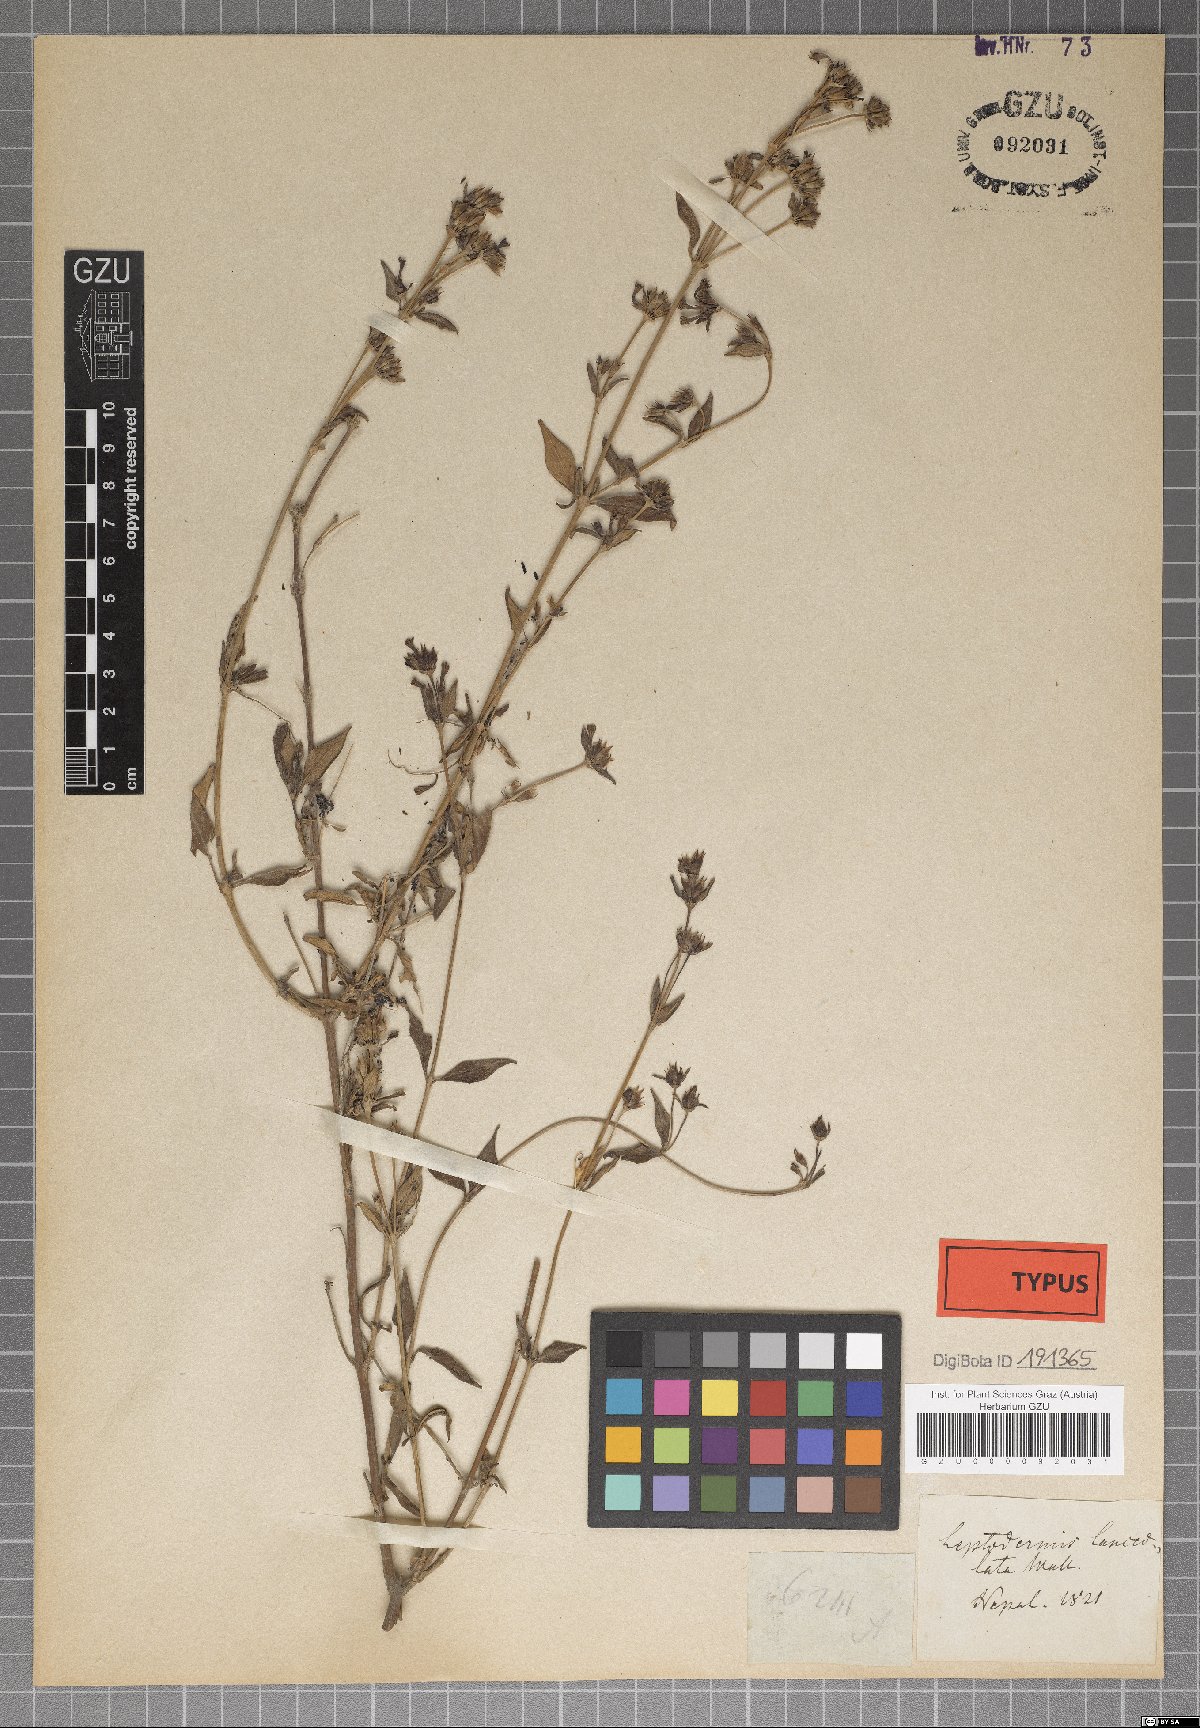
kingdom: Plantae
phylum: Tracheophyta
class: Magnoliopsida
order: Gentianales
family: Rubiaceae
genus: Leptodermis
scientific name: Leptodermis lanceolata
